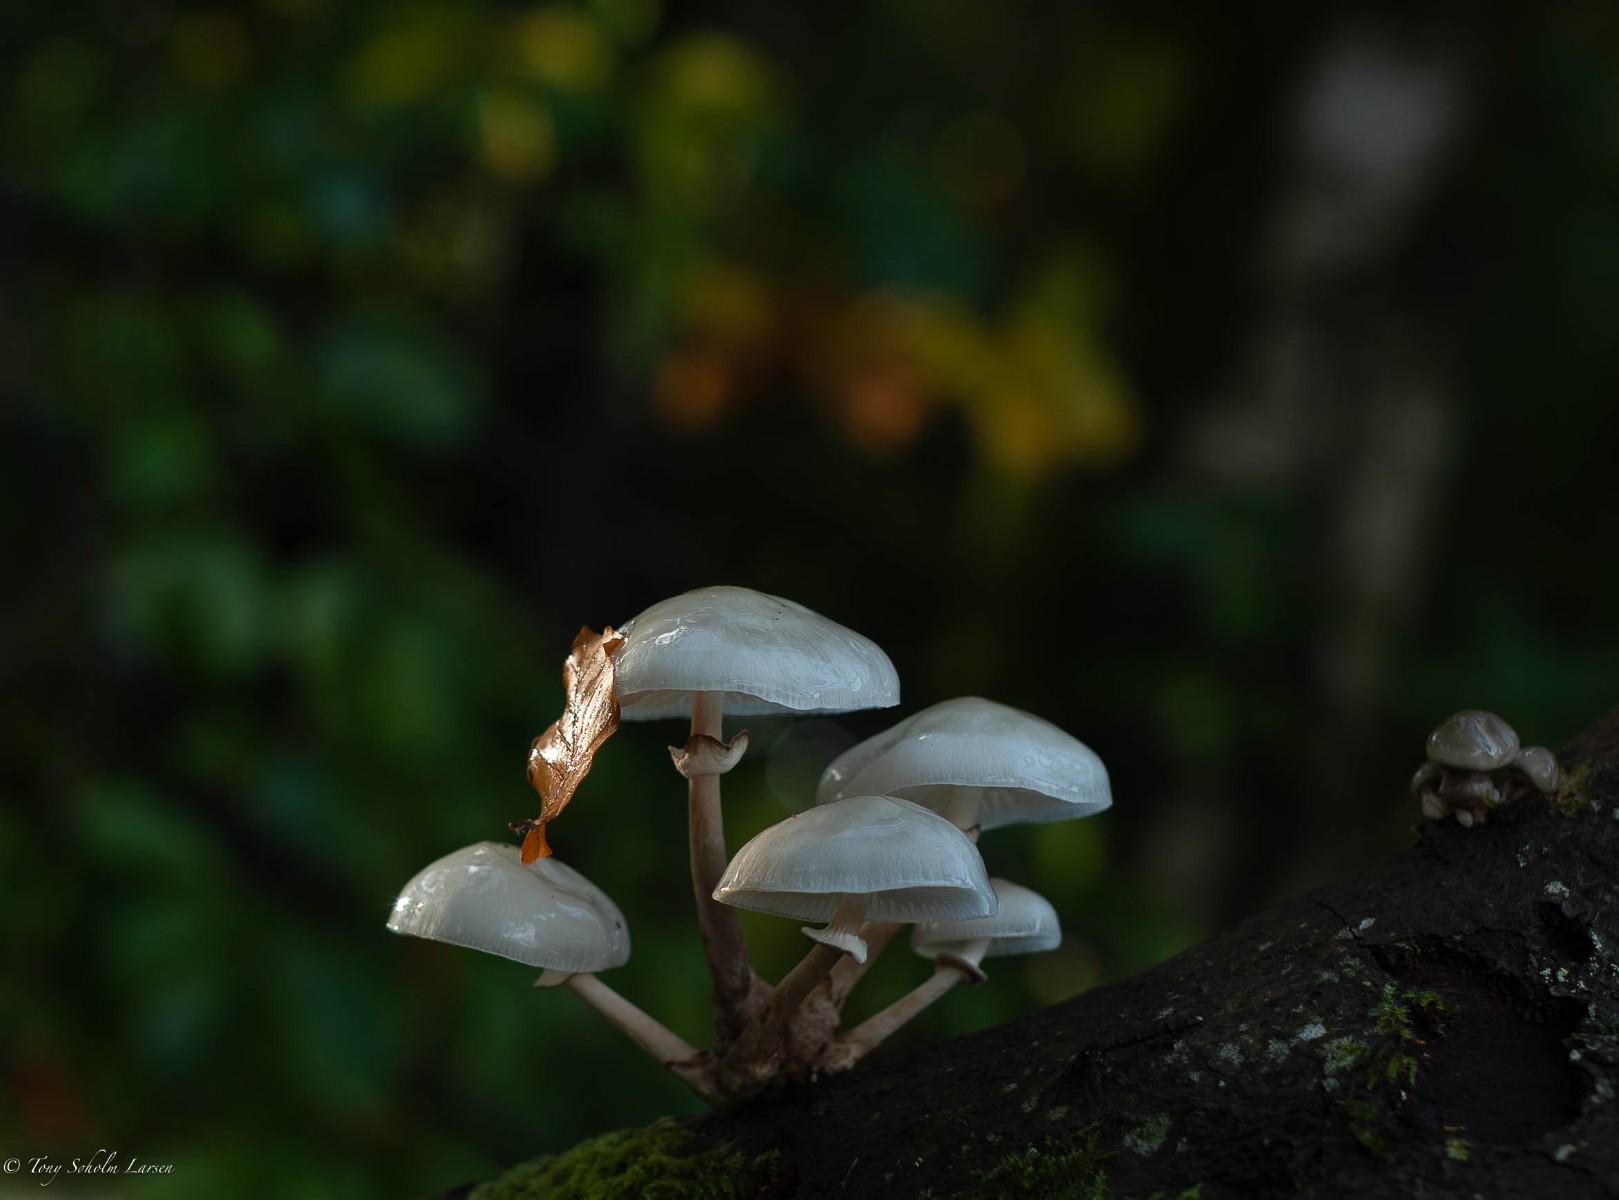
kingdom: Fungi
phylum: Basidiomycota
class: Agaricomycetes
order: Agaricales
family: Physalacriaceae
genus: Mucidula
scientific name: Mucidula mucida
